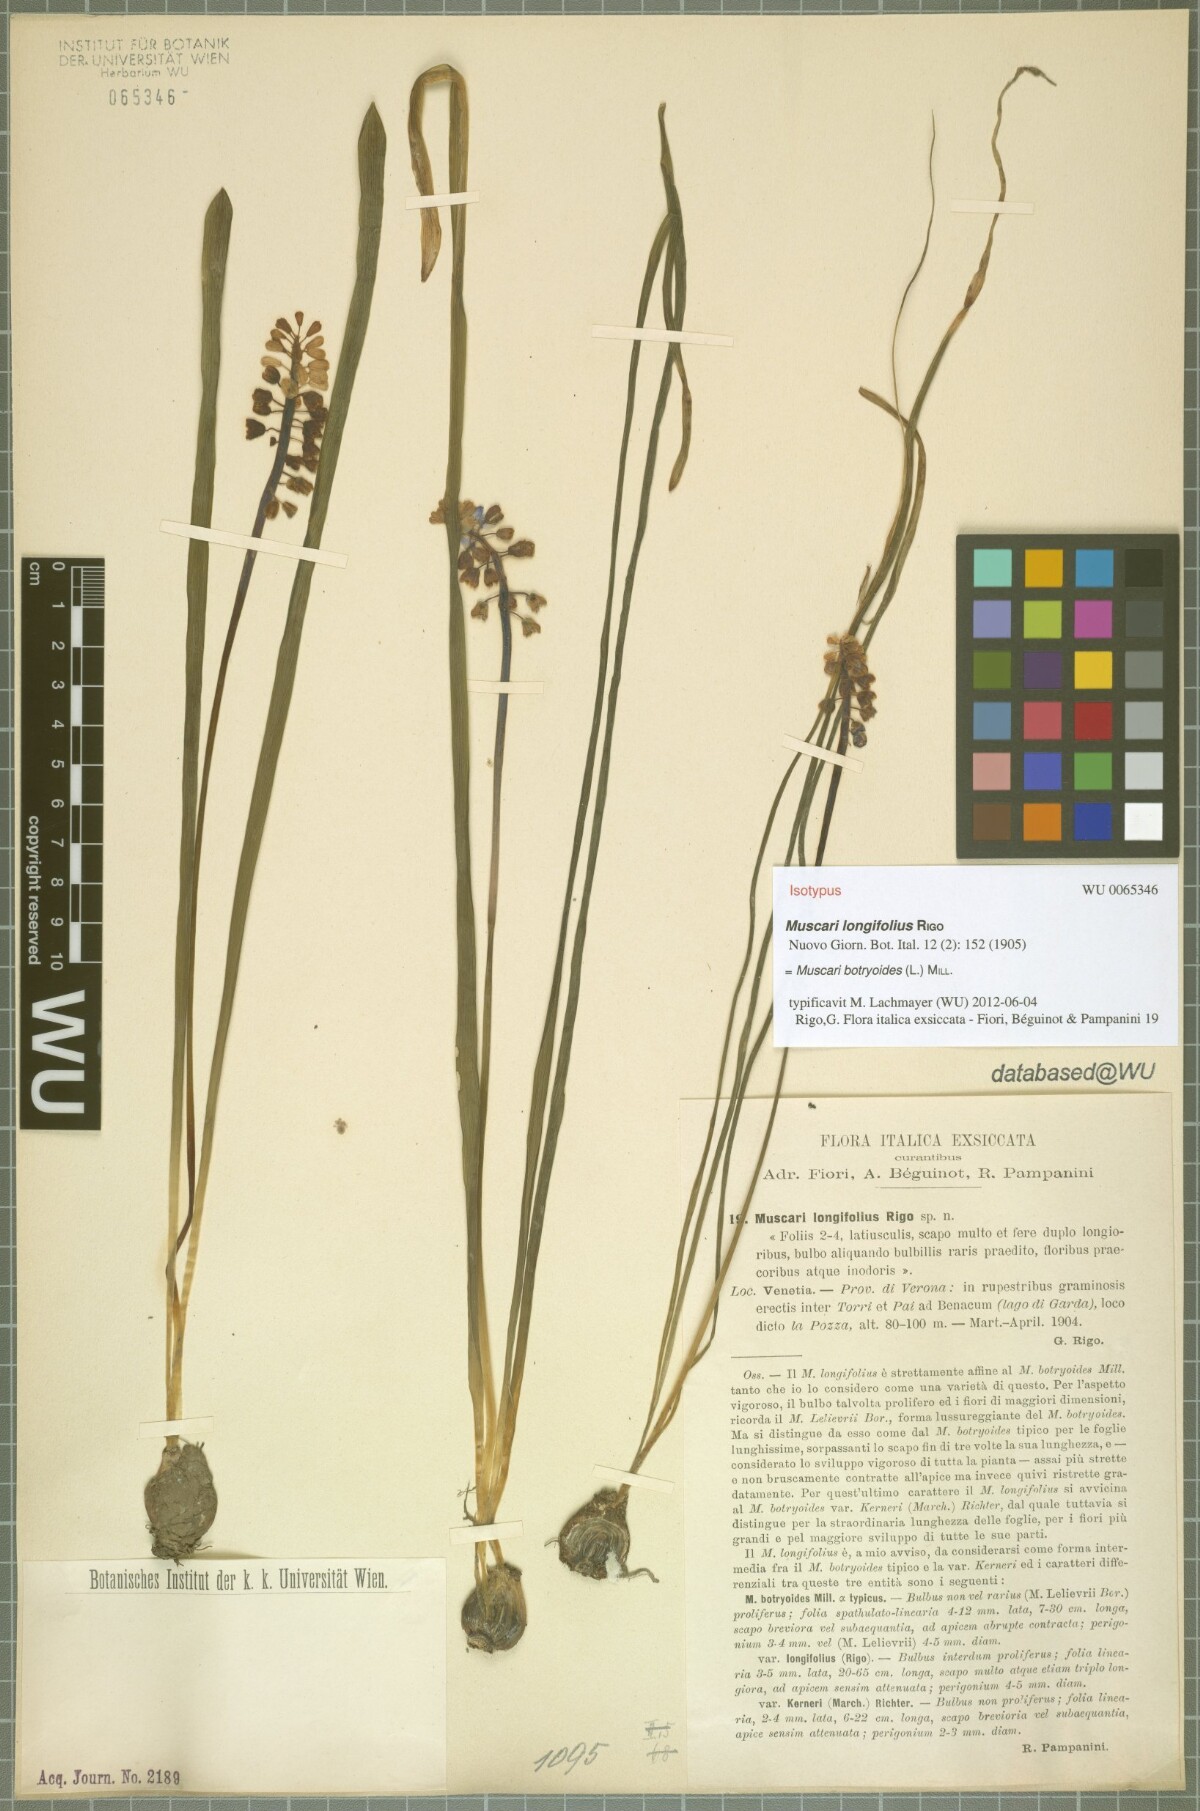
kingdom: Plantae
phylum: Tracheophyta
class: Liliopsida
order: Asparagales
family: Asparagaceae
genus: Muscari
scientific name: Muscari botryoides
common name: Compact grape-hyacinth
